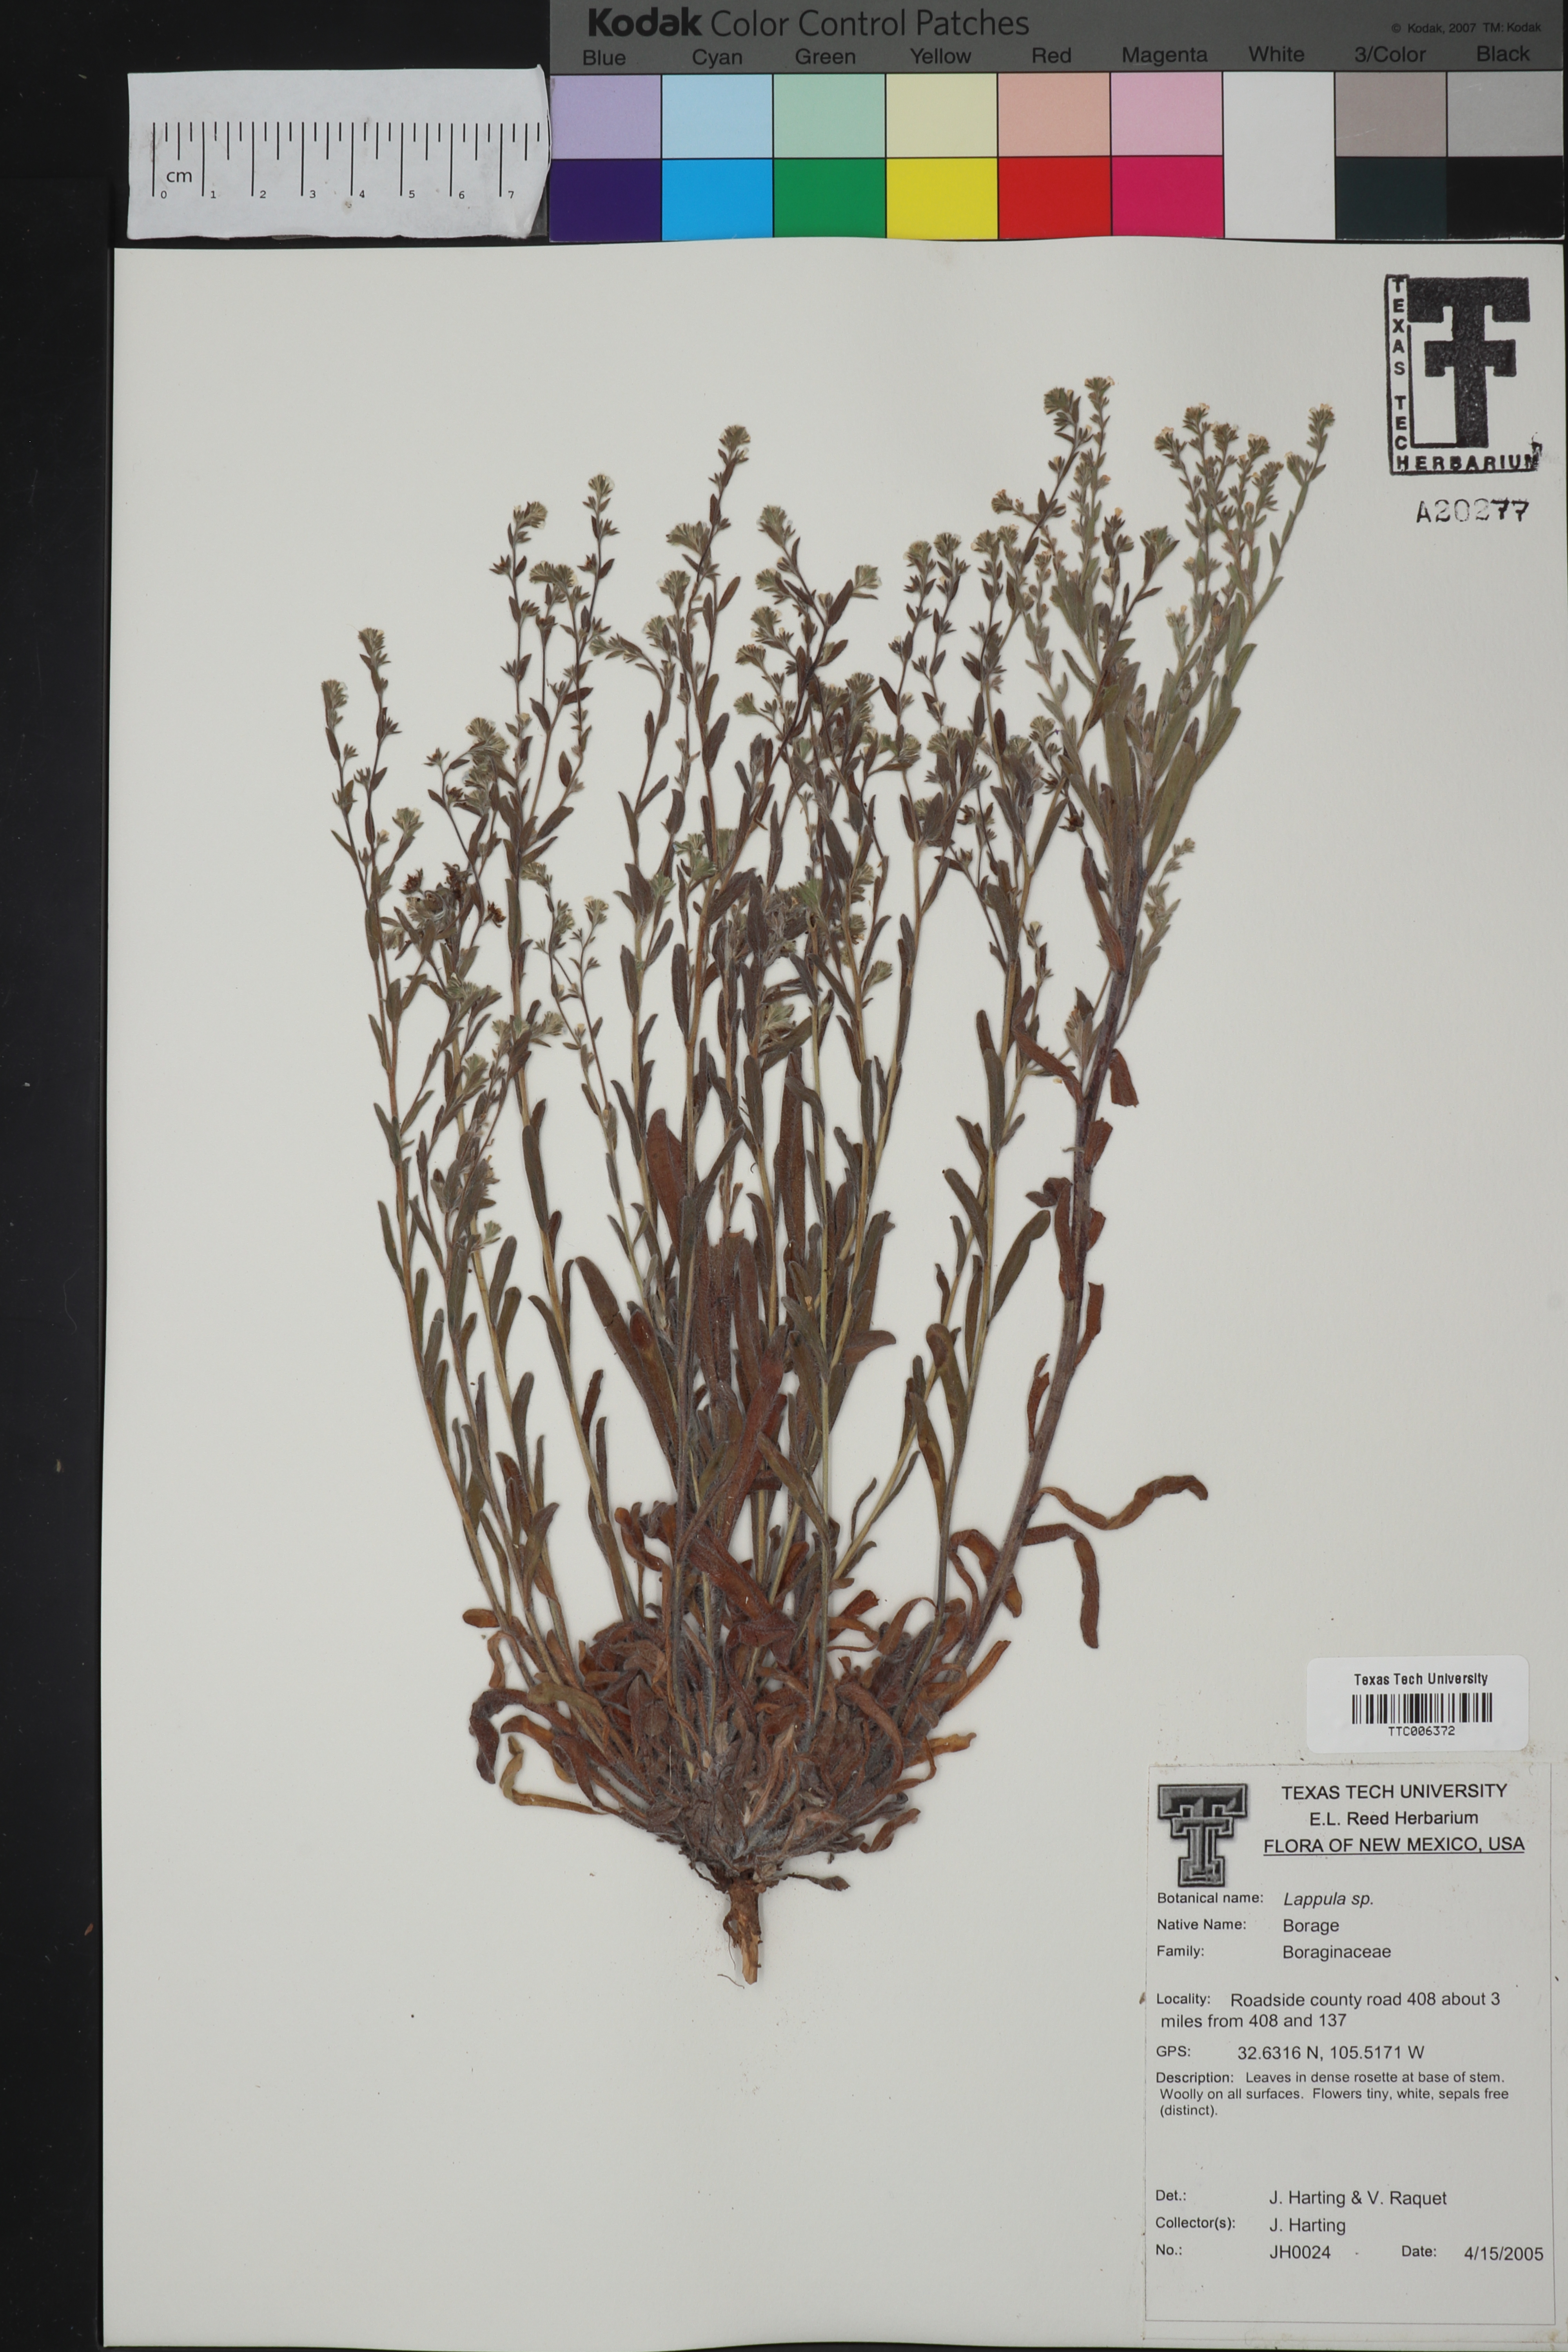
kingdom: Plantae
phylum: Tracheophyta
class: Magnoliopsida
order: Boraginales
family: Boraginaceae
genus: Lappula
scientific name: Lappula
